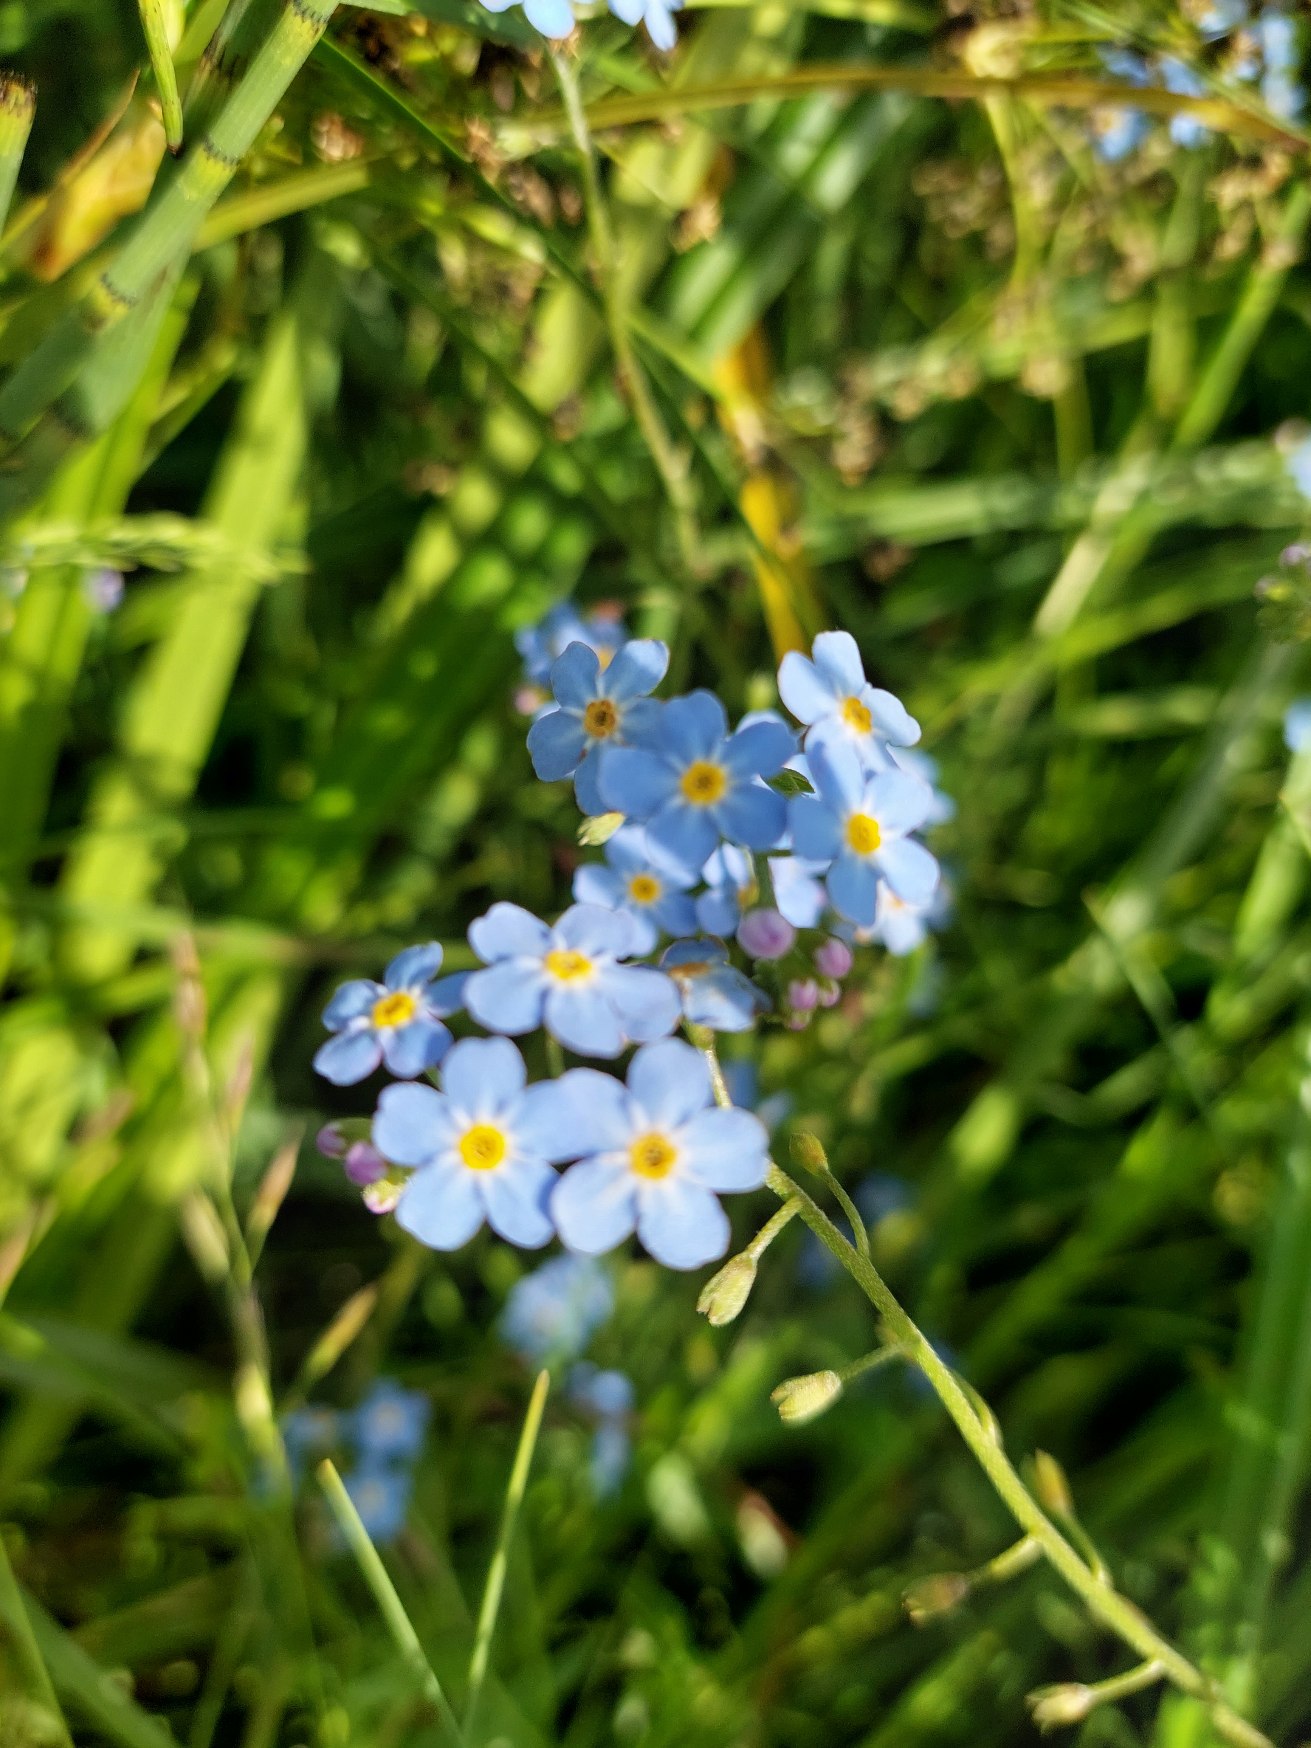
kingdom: Plantae
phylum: Tracheophyta
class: Magnoliopsida
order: Boraginales
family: Boraginaceae
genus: Myosotis
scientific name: Myosotis scorpioides
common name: Eng-forglemmigej
